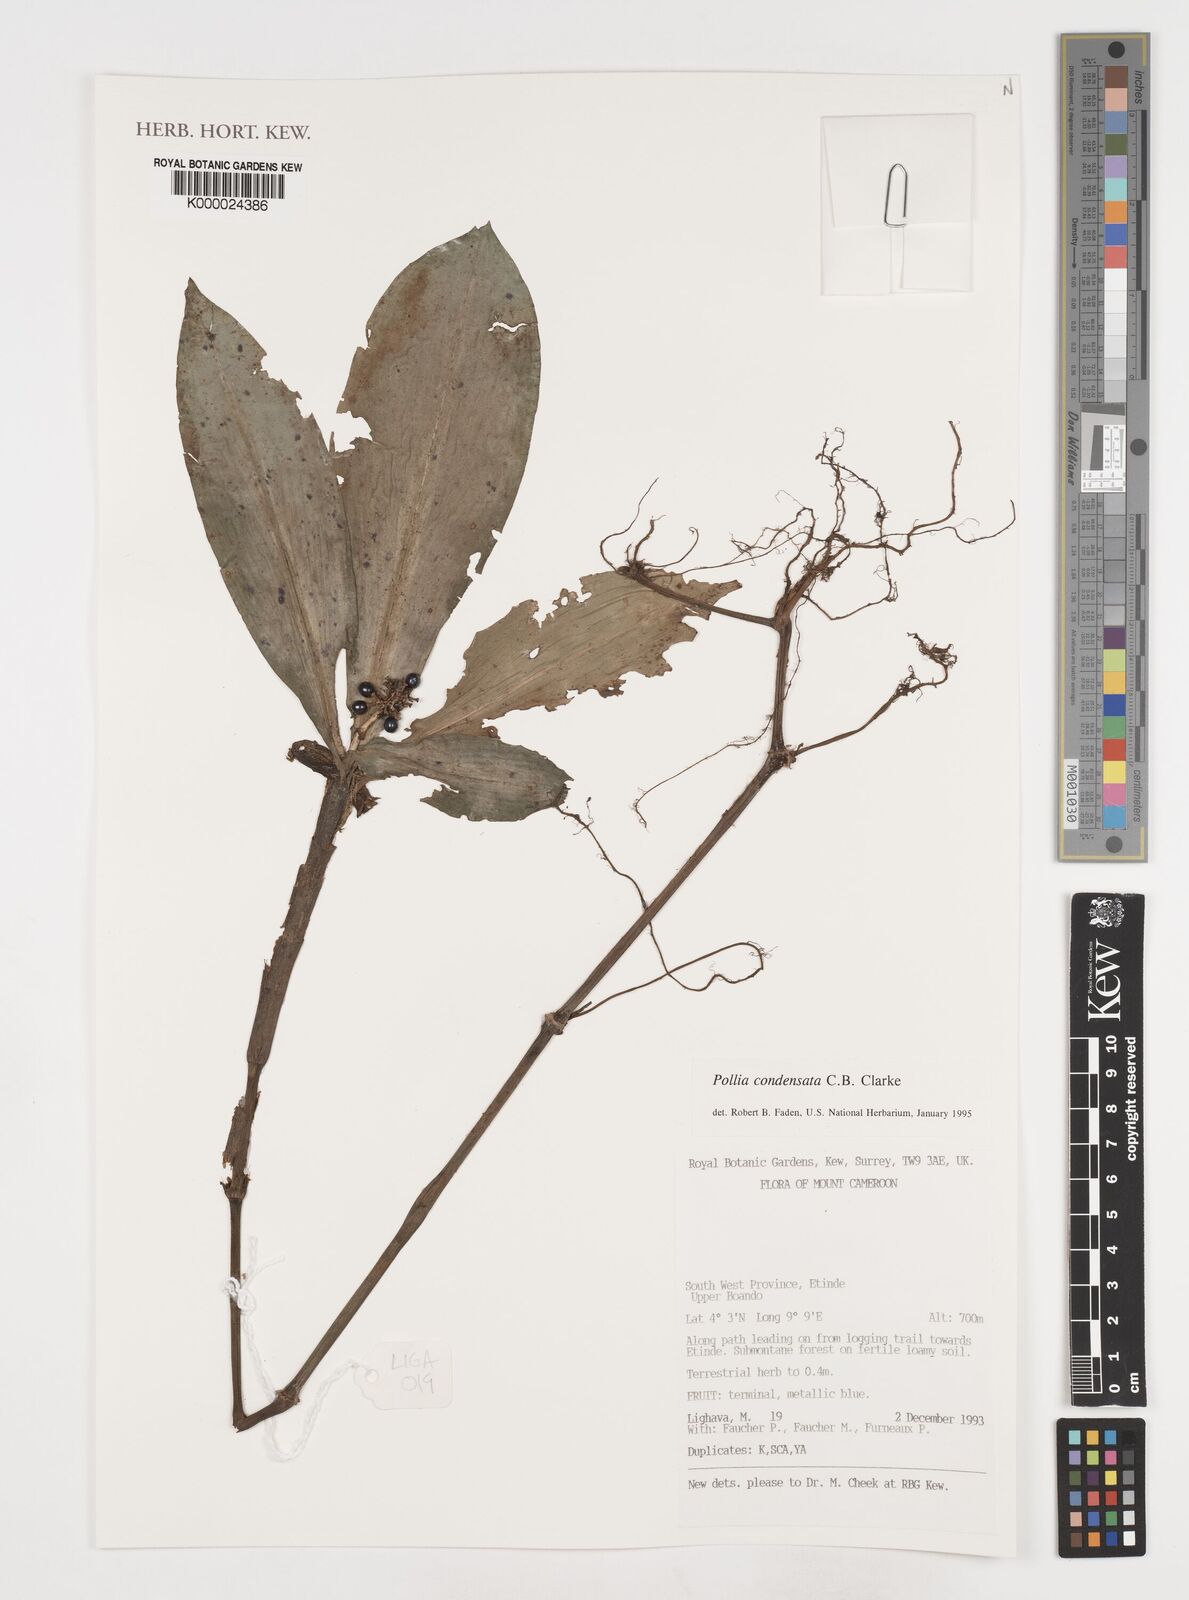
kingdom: Plantae
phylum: Tracheophyta
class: Liliopsida
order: Commelinales
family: Commelinaceae
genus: Pollia
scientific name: Pollia condensata
